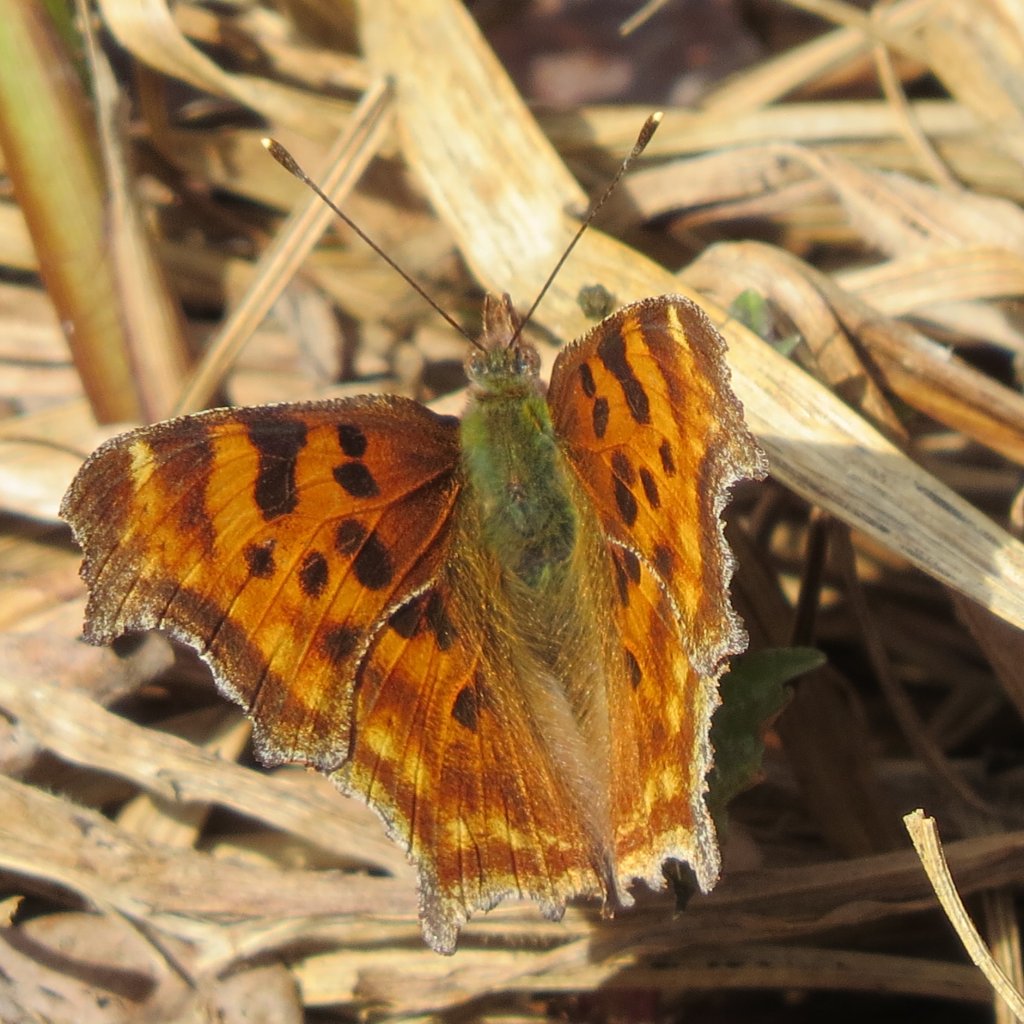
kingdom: Animalia
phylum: Arthropoda
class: Insecta
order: Lepidoptera
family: Nymphalidae
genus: Polygonia
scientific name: Polygonia satyrus
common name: Satyr Comma
